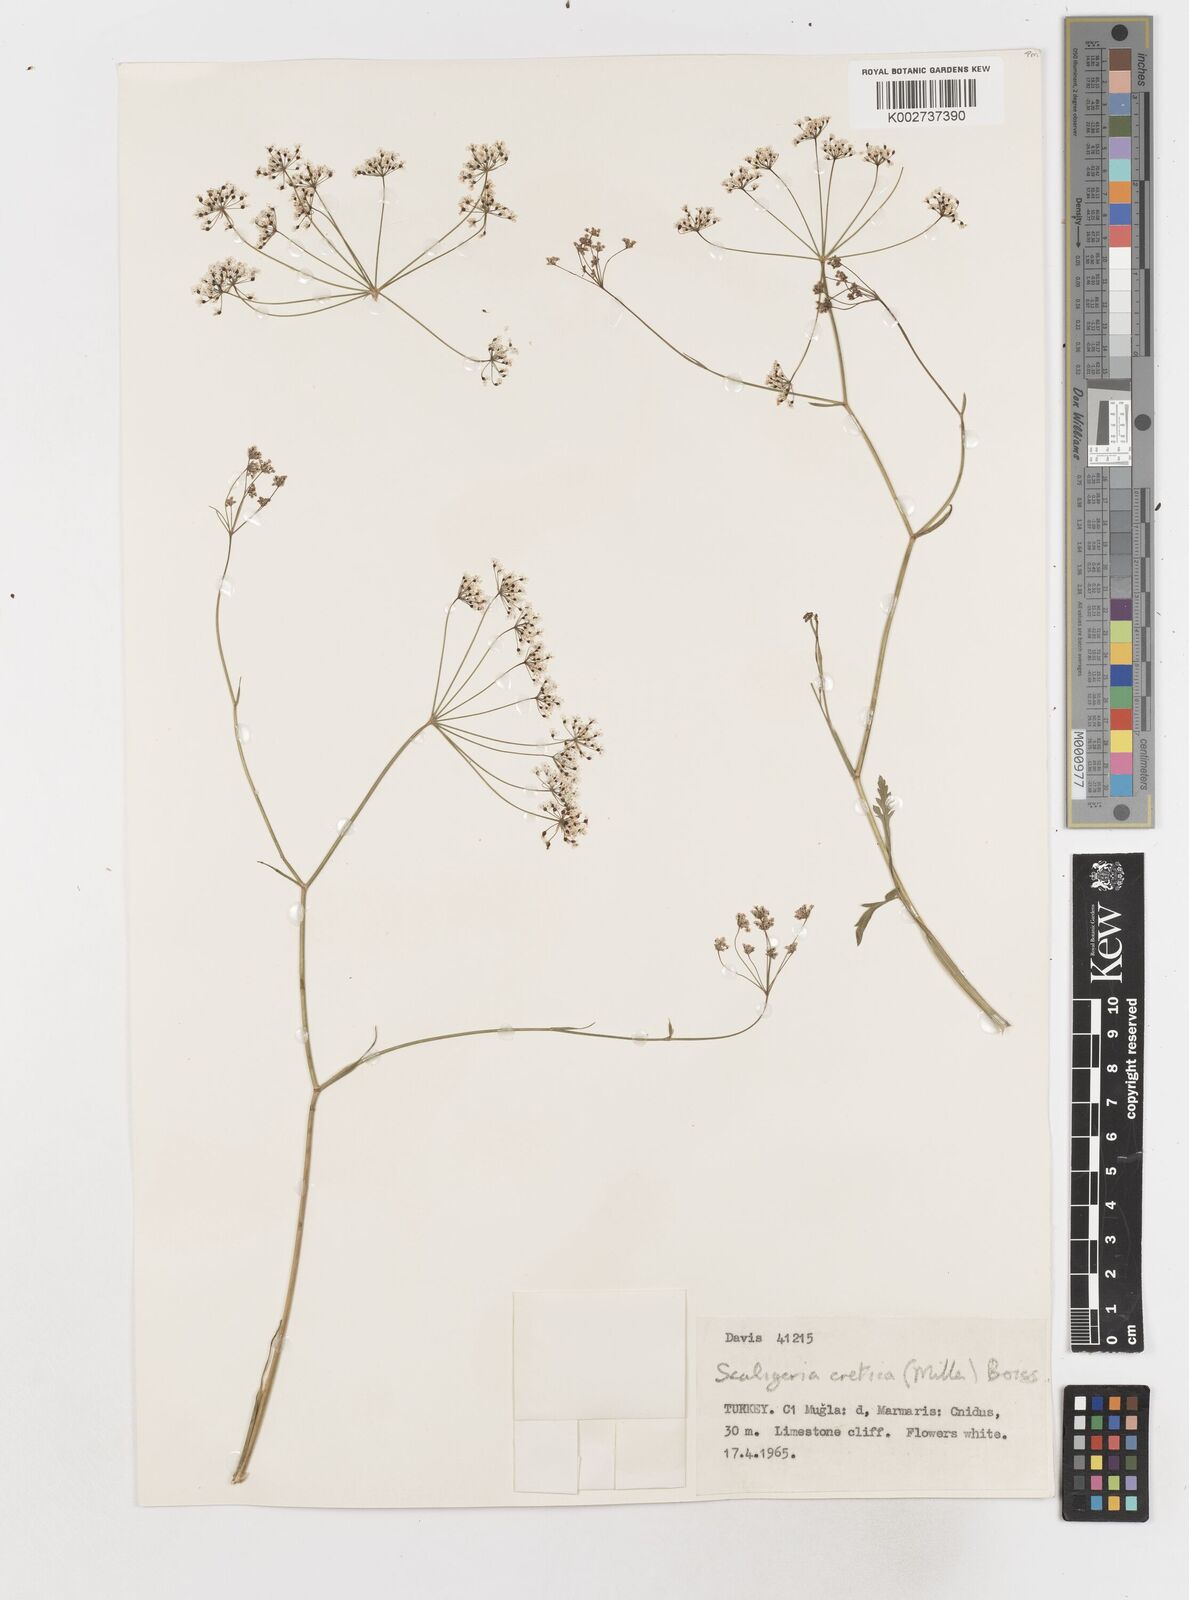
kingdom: Plantae
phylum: Tracheophyta
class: Magnoliopsida
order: Apiales
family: Apiaceae
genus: Scaligeria
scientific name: Scaligeria
